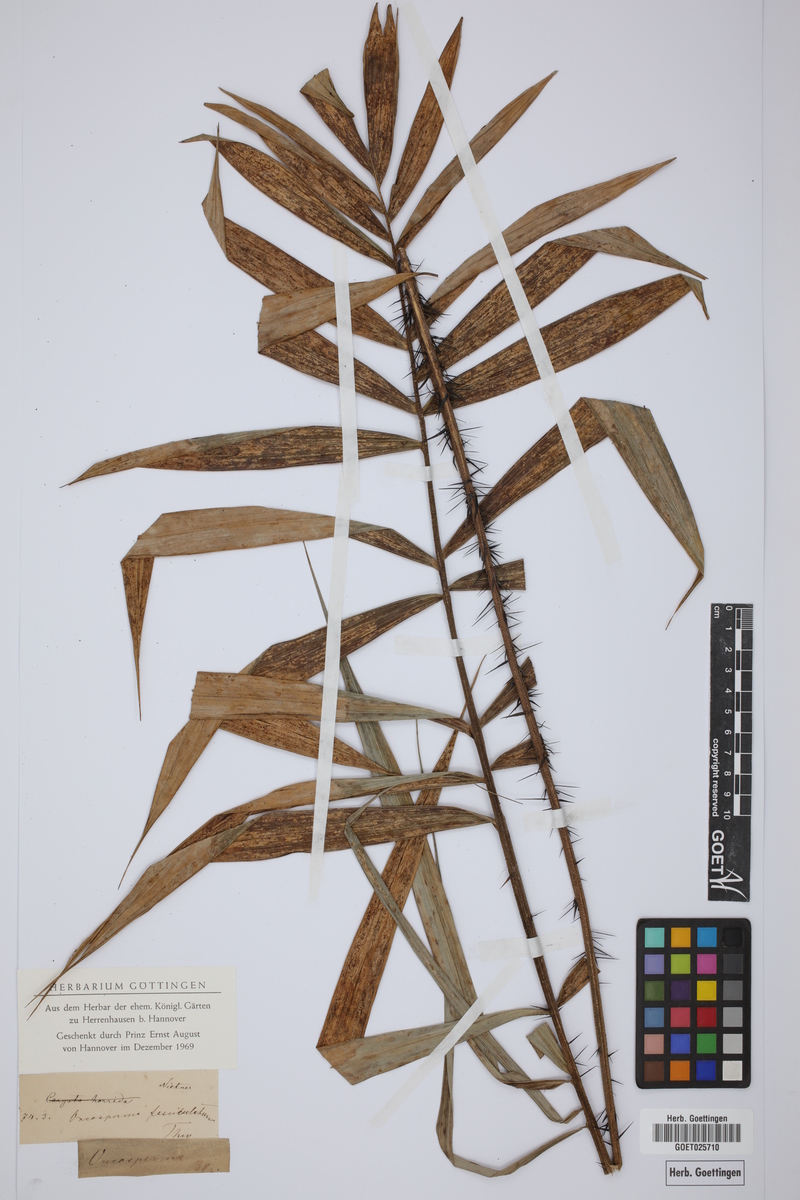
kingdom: Plantae
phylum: Tracheophyta
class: Liliopsida
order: Arecales
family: Arecaceae
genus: Oncosperma
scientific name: Oncosperma fasciculatum
